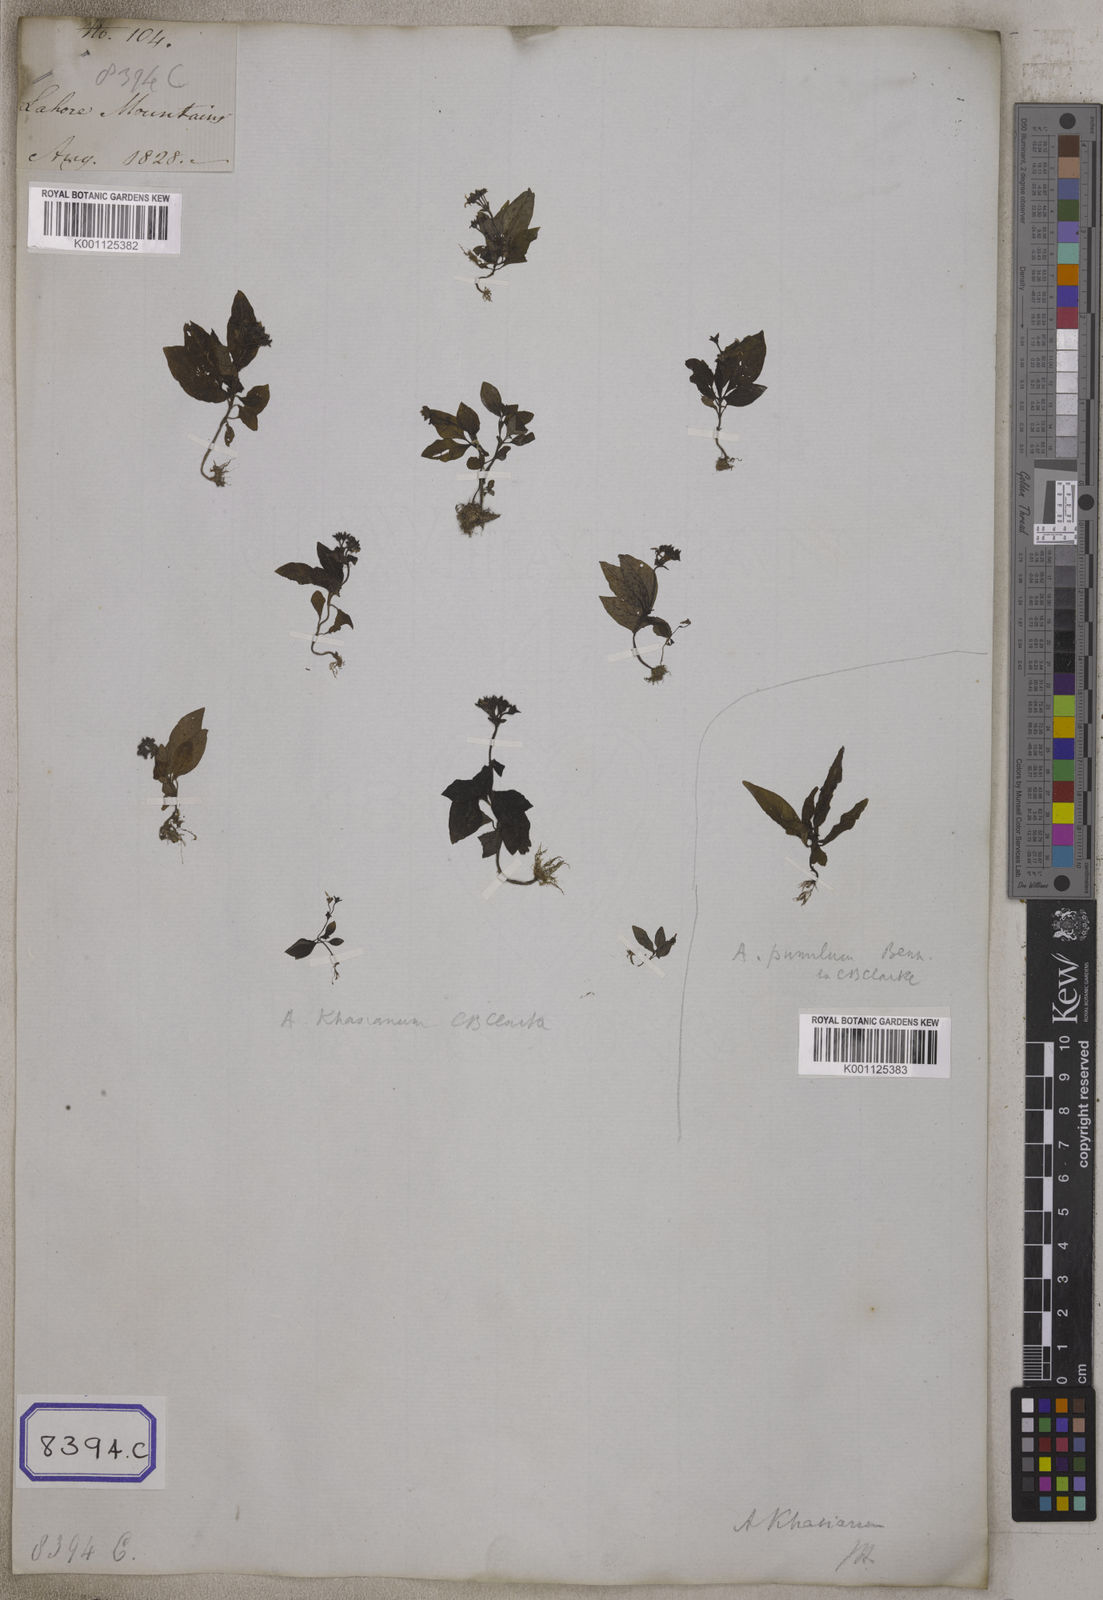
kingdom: Plantae
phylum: Tracheophyta
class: Magnoliopsida
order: Gentianales
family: Rubiaceae
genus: Argostemma
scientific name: Argostemma verticillatum
